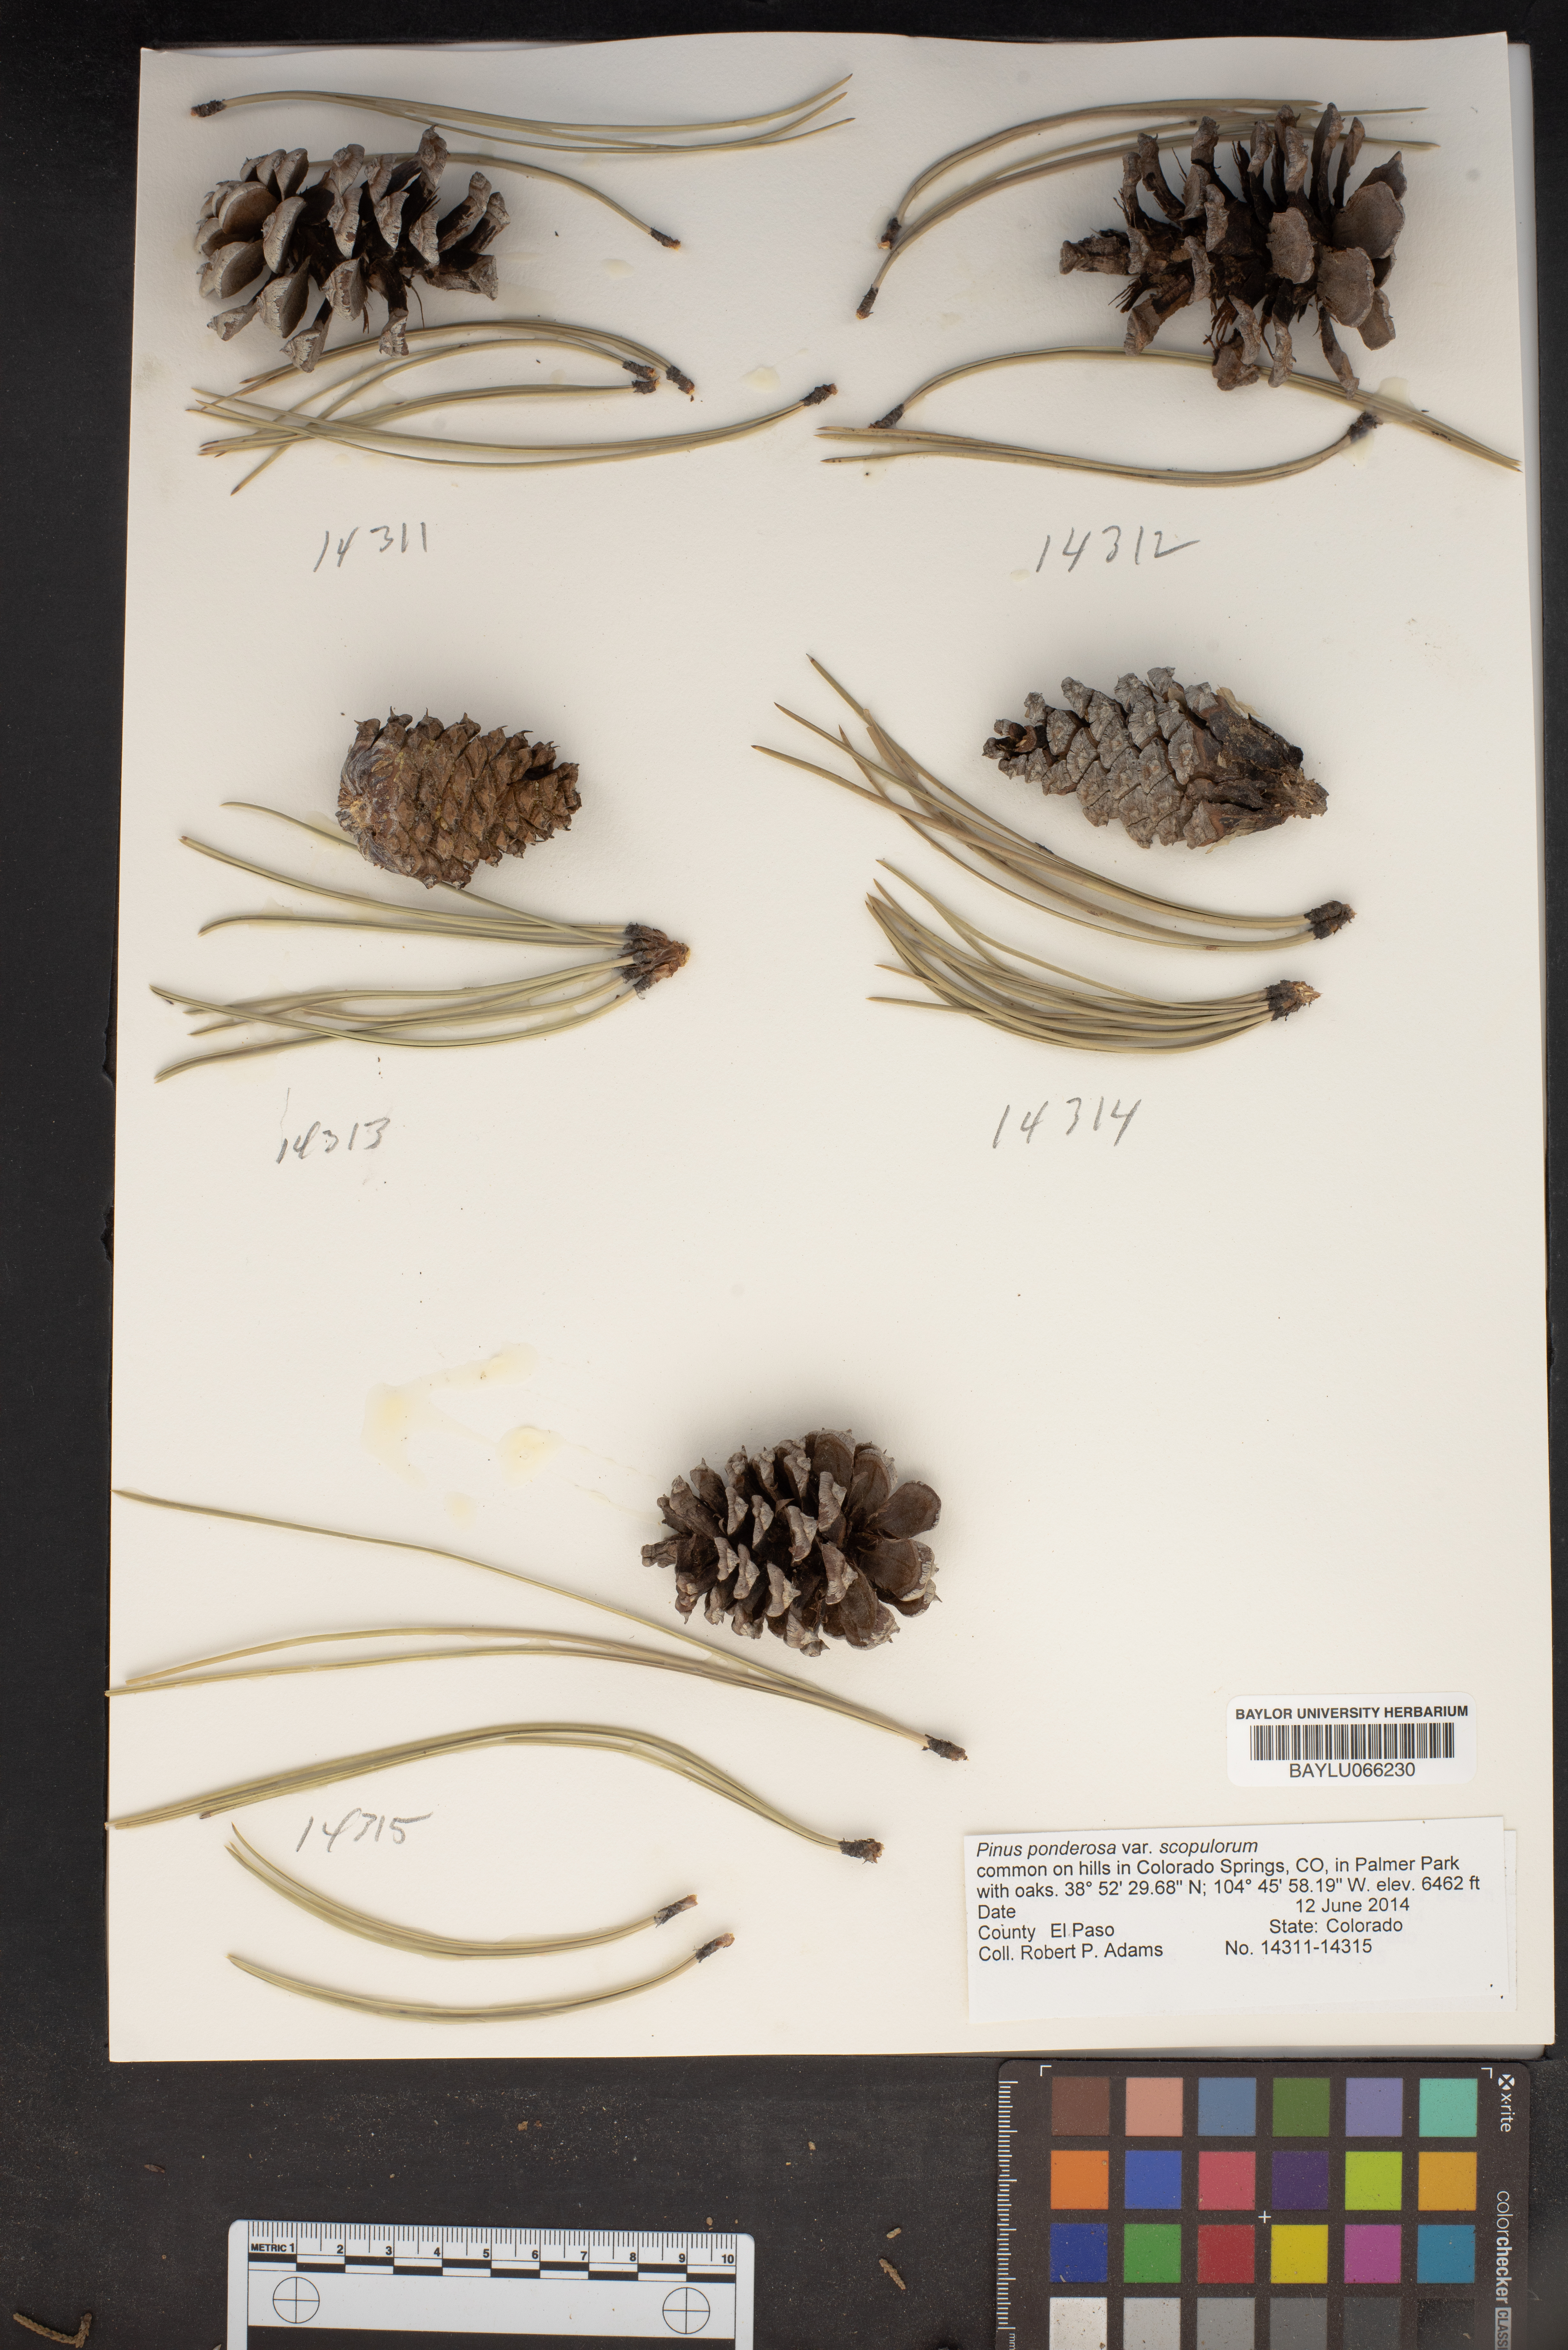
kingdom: Plantae
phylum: Tracheophyta
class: Pinopsida
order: Pinales
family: Pinaceae
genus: Pinus
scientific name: Pinus ponderosa
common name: Western yellow-pine
